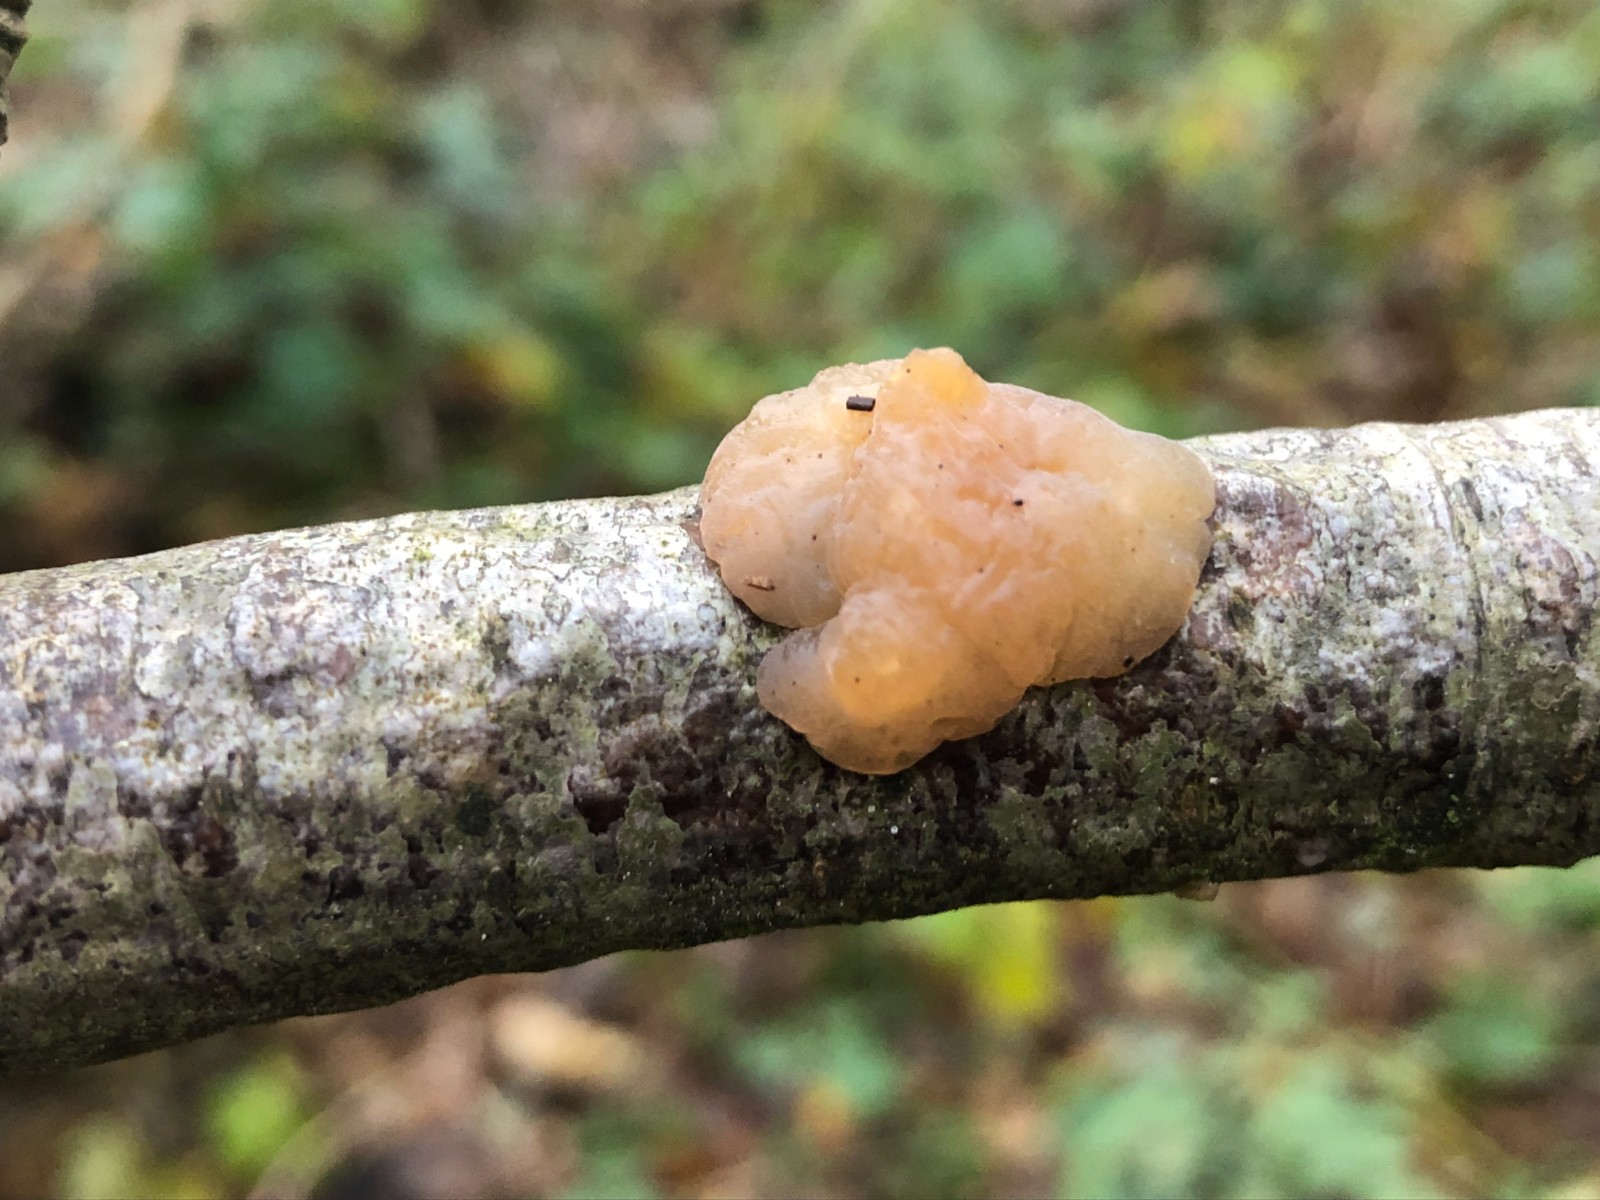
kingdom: Fungi
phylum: Basidiomycota
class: Agaricomycetes
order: Auriculariales
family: Hyaloriaceae
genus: Myxarium
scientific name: Myxarium
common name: bævretop
